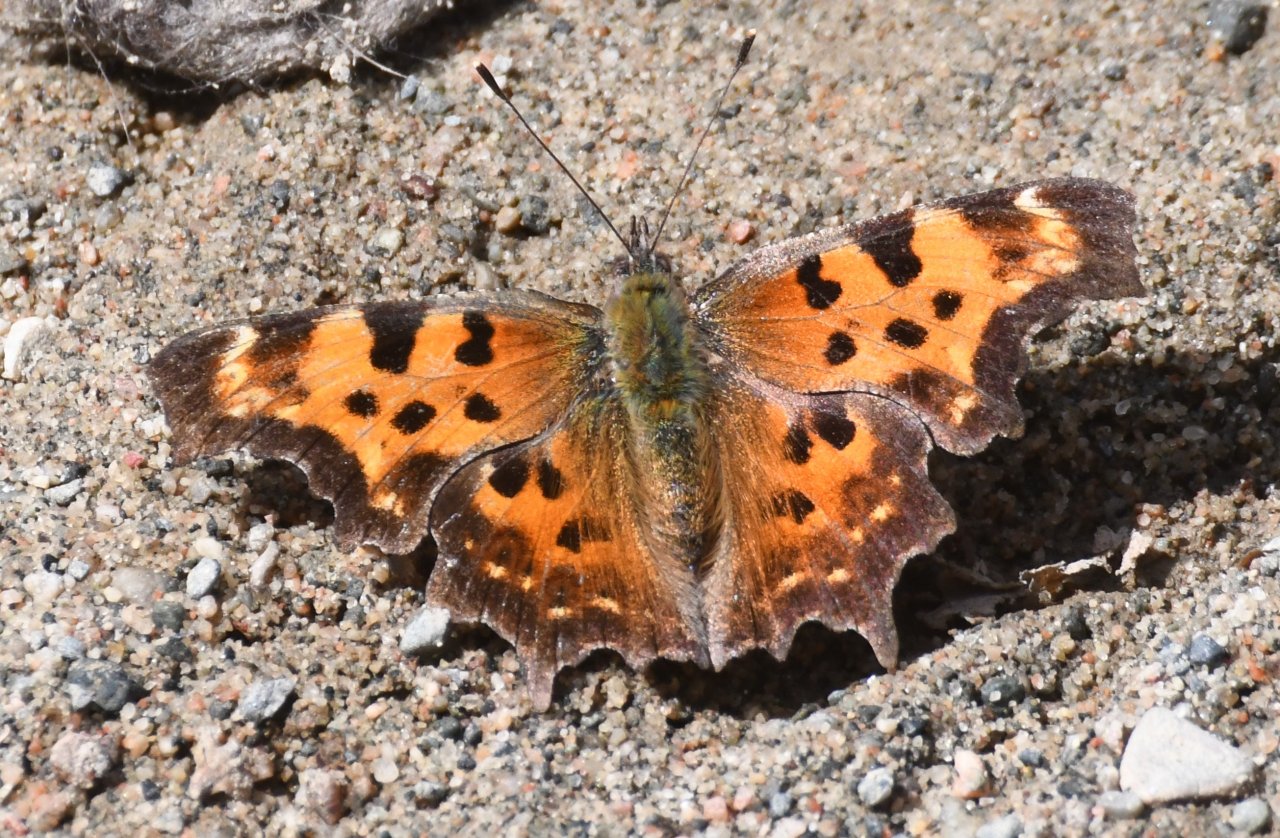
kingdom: Animalia
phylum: Arthropoda
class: Insecta
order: Lepidoptera
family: Nymphalidae
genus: Polygonia
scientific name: Polygonia faunus
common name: Green Comma
